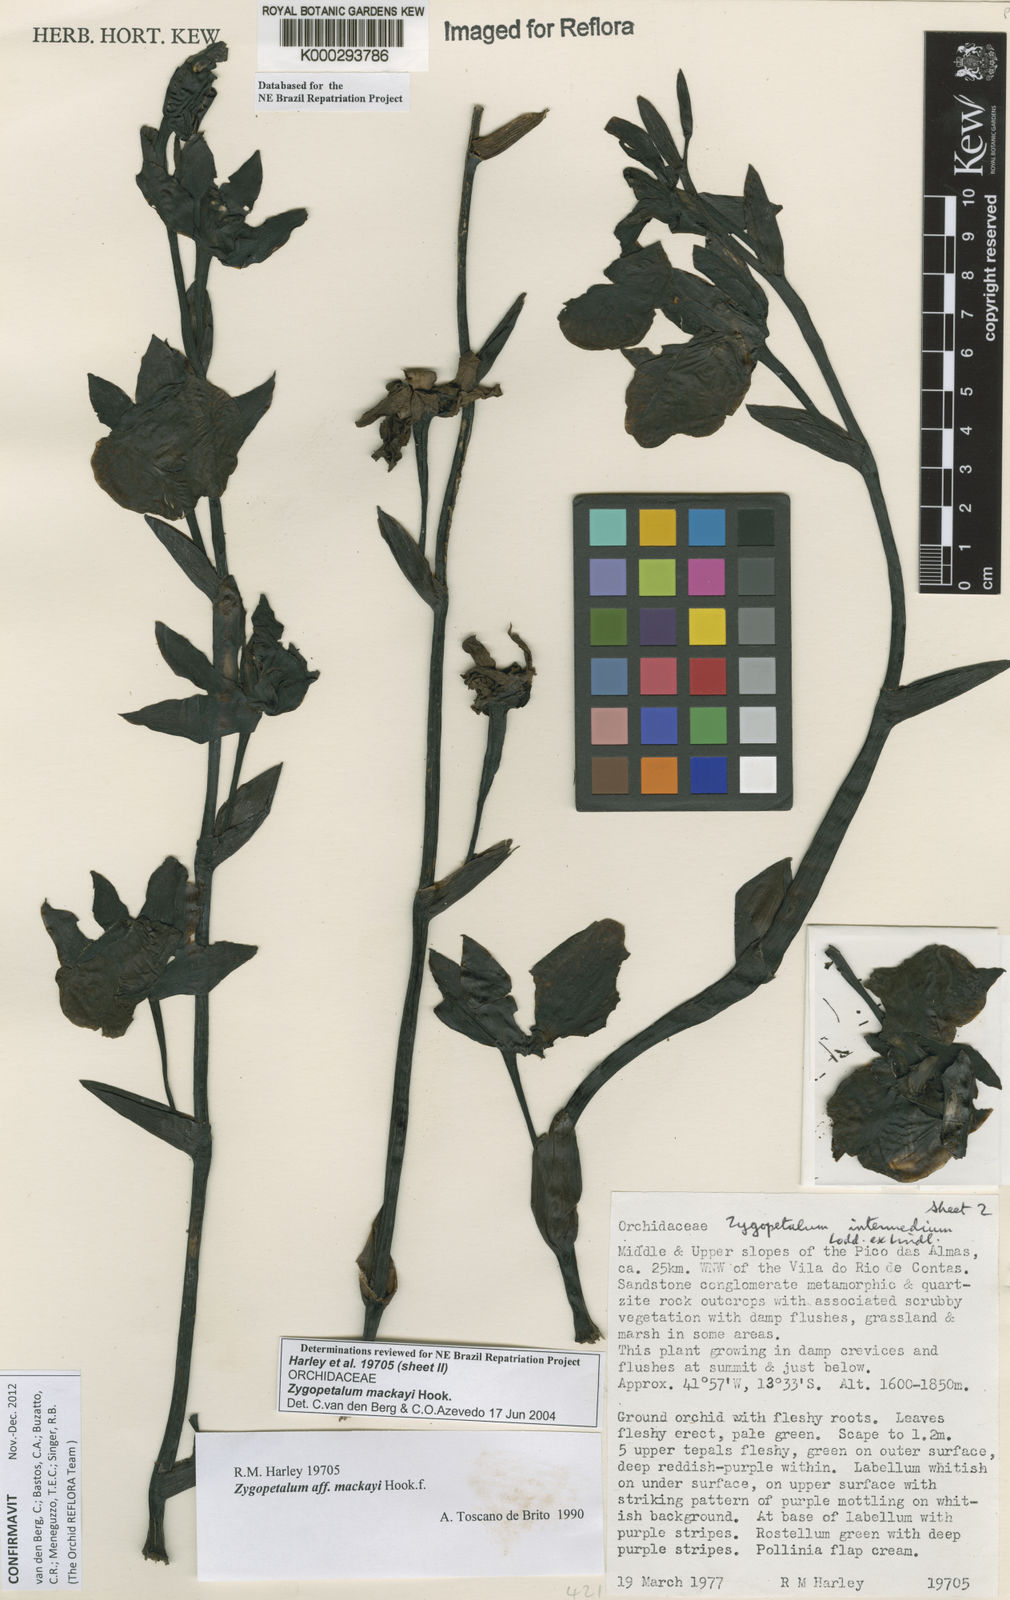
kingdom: Plantae
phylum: Tracheophyta
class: Liliopsida
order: Asparagales
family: Orchidaceae
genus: Zygopetalum
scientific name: Zygopetalum maculatum
